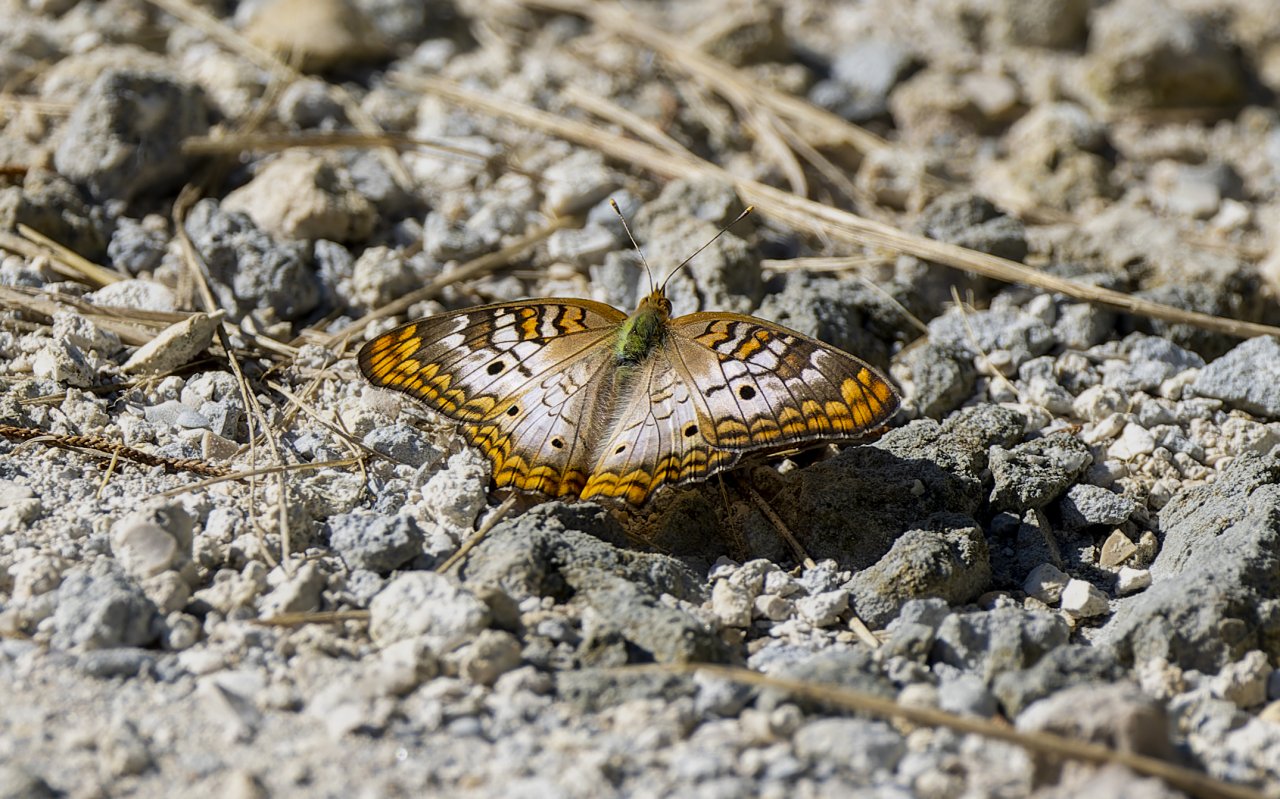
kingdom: Animalia
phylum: Arthropoda
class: Insecta
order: Lepidoptera
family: Nymphalidae
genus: Anartia
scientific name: Anartia jatrophae
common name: White Peacock
